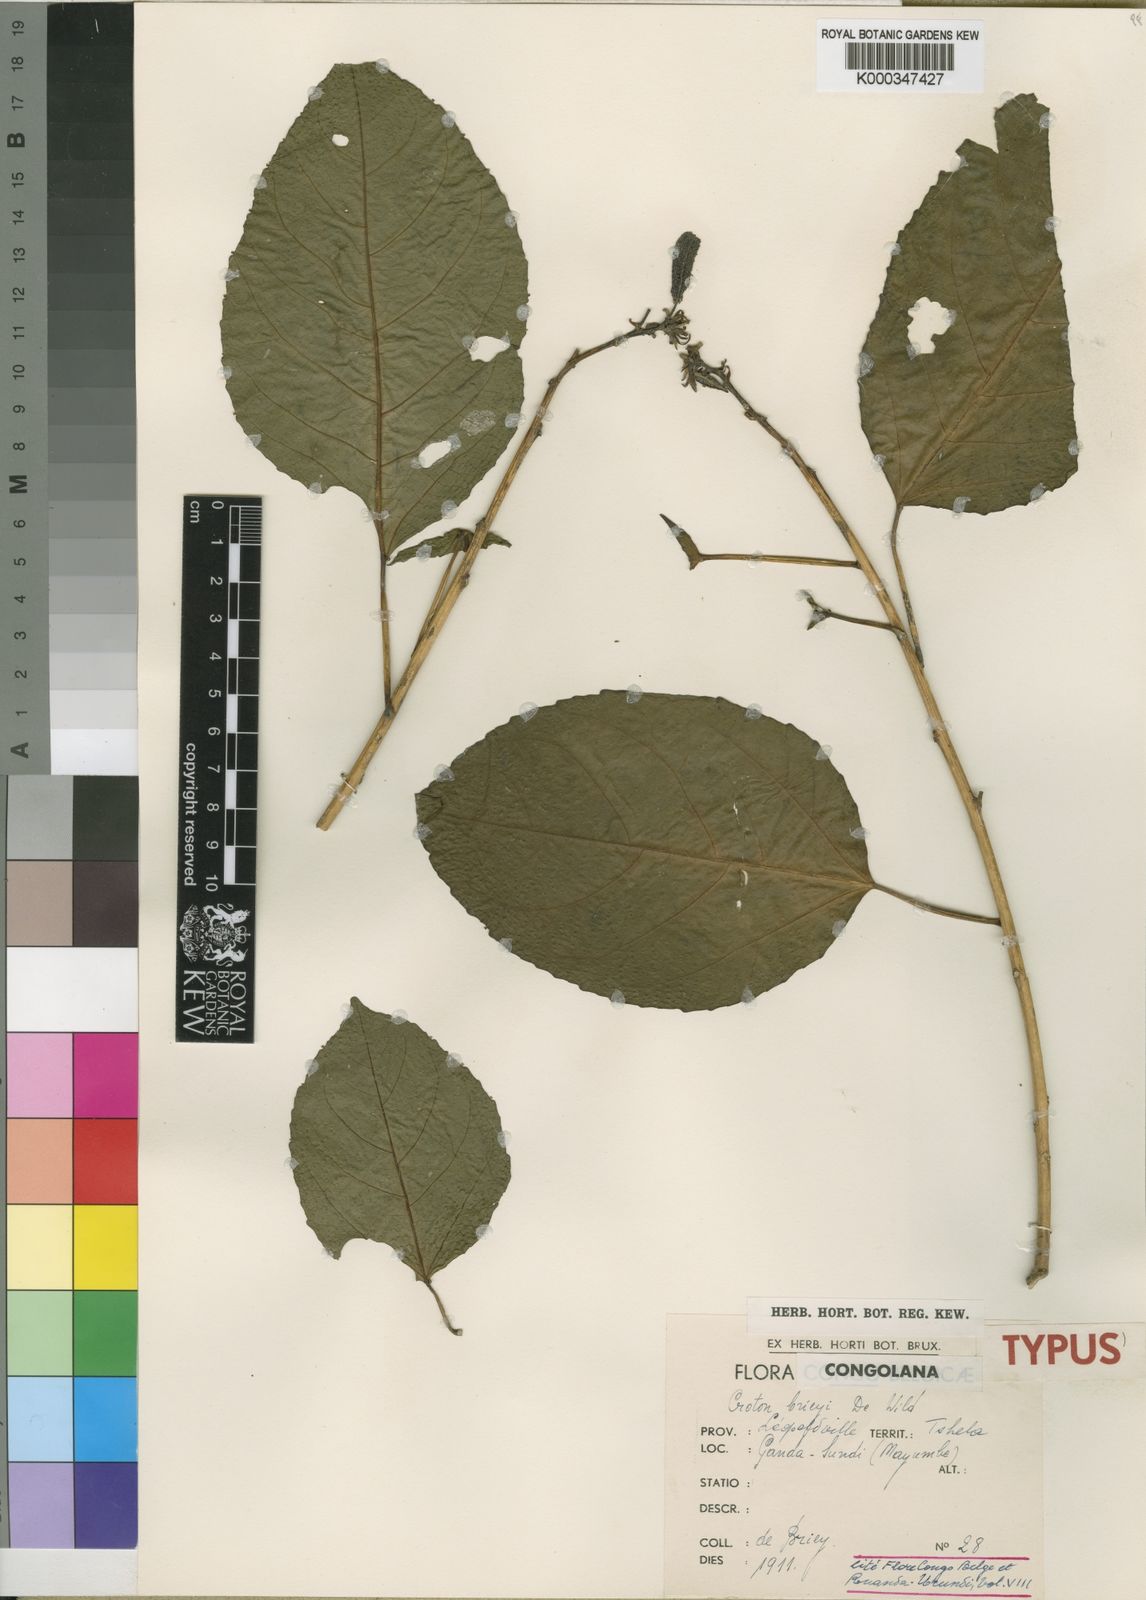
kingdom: Plantae
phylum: Tracheophyta
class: Magnoliopsida
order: Malpighiales
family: Euphorbiaceae
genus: Croton
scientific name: Croton brieyi
